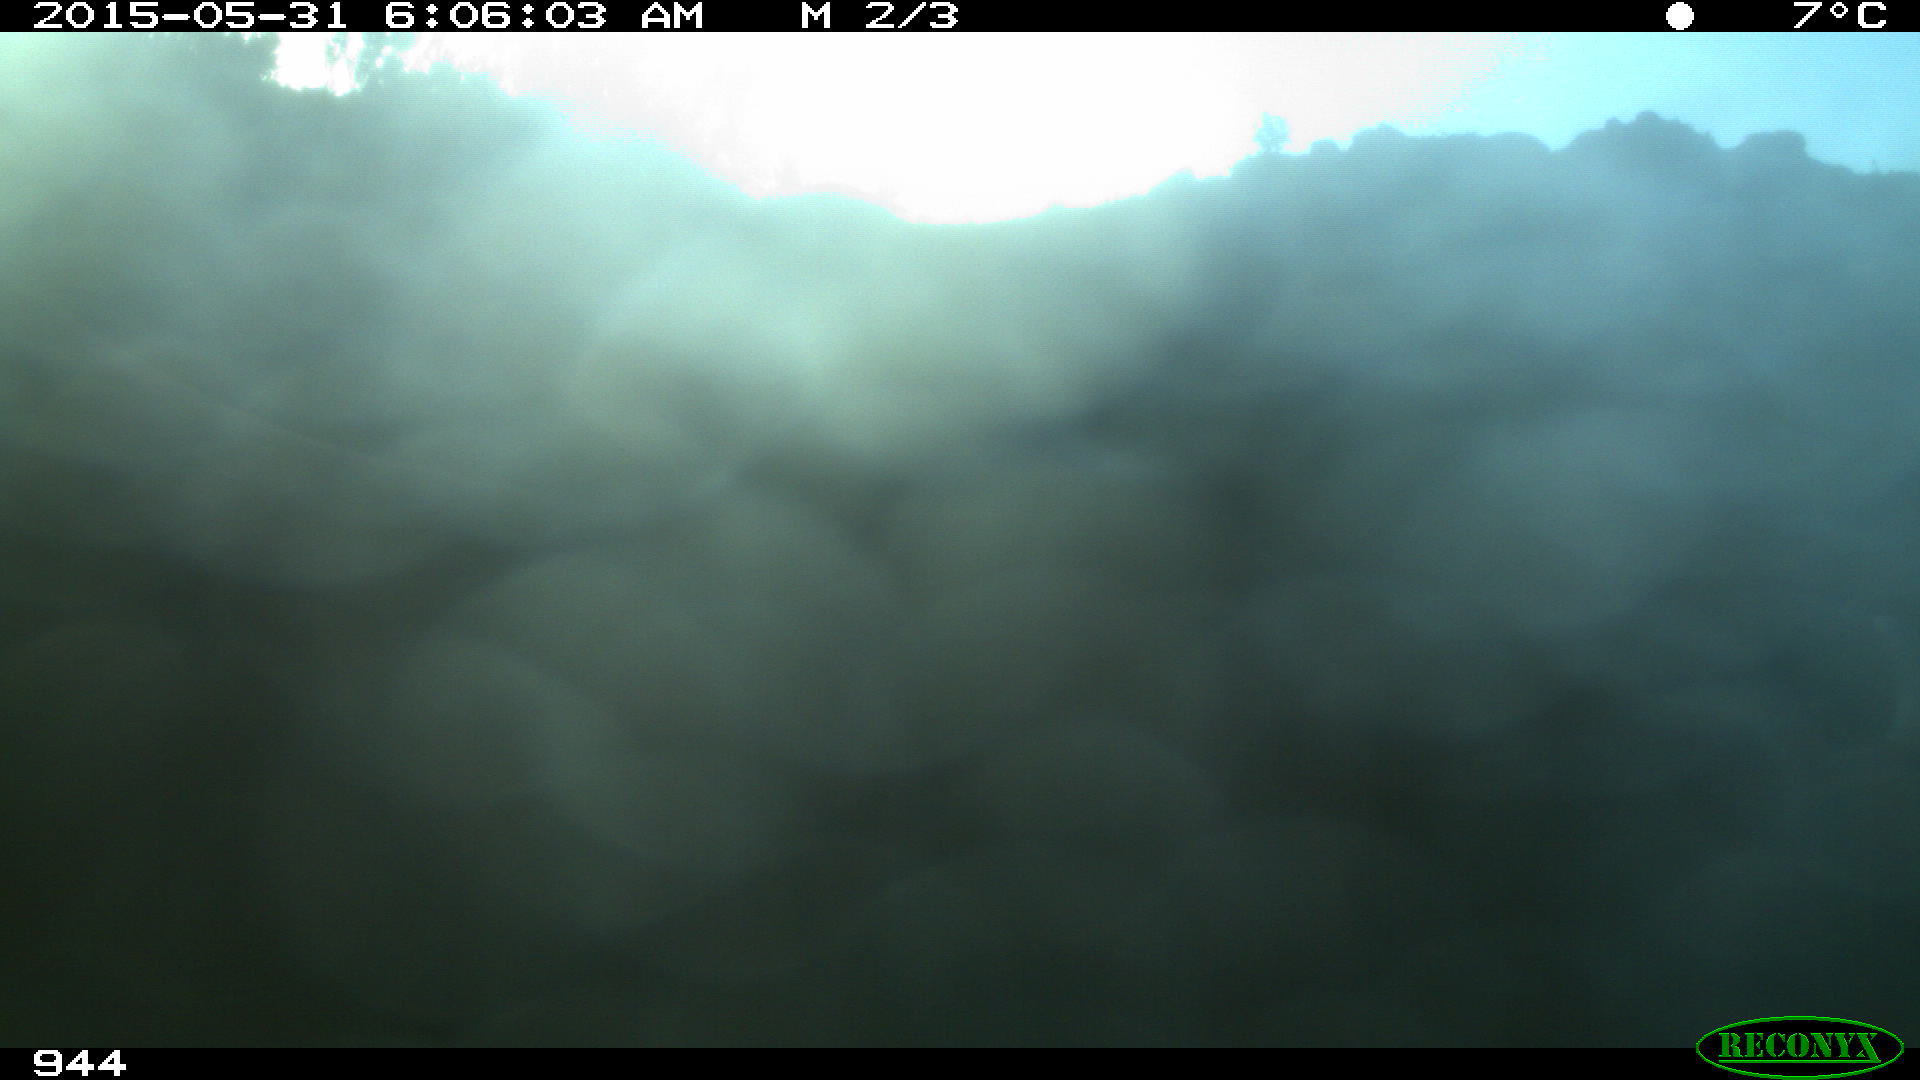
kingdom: Animalia
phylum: Chordata
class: Mammalia
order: Artiodactyla
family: Bovidae
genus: Bos
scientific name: Bos taurus
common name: Domesticated cattle
